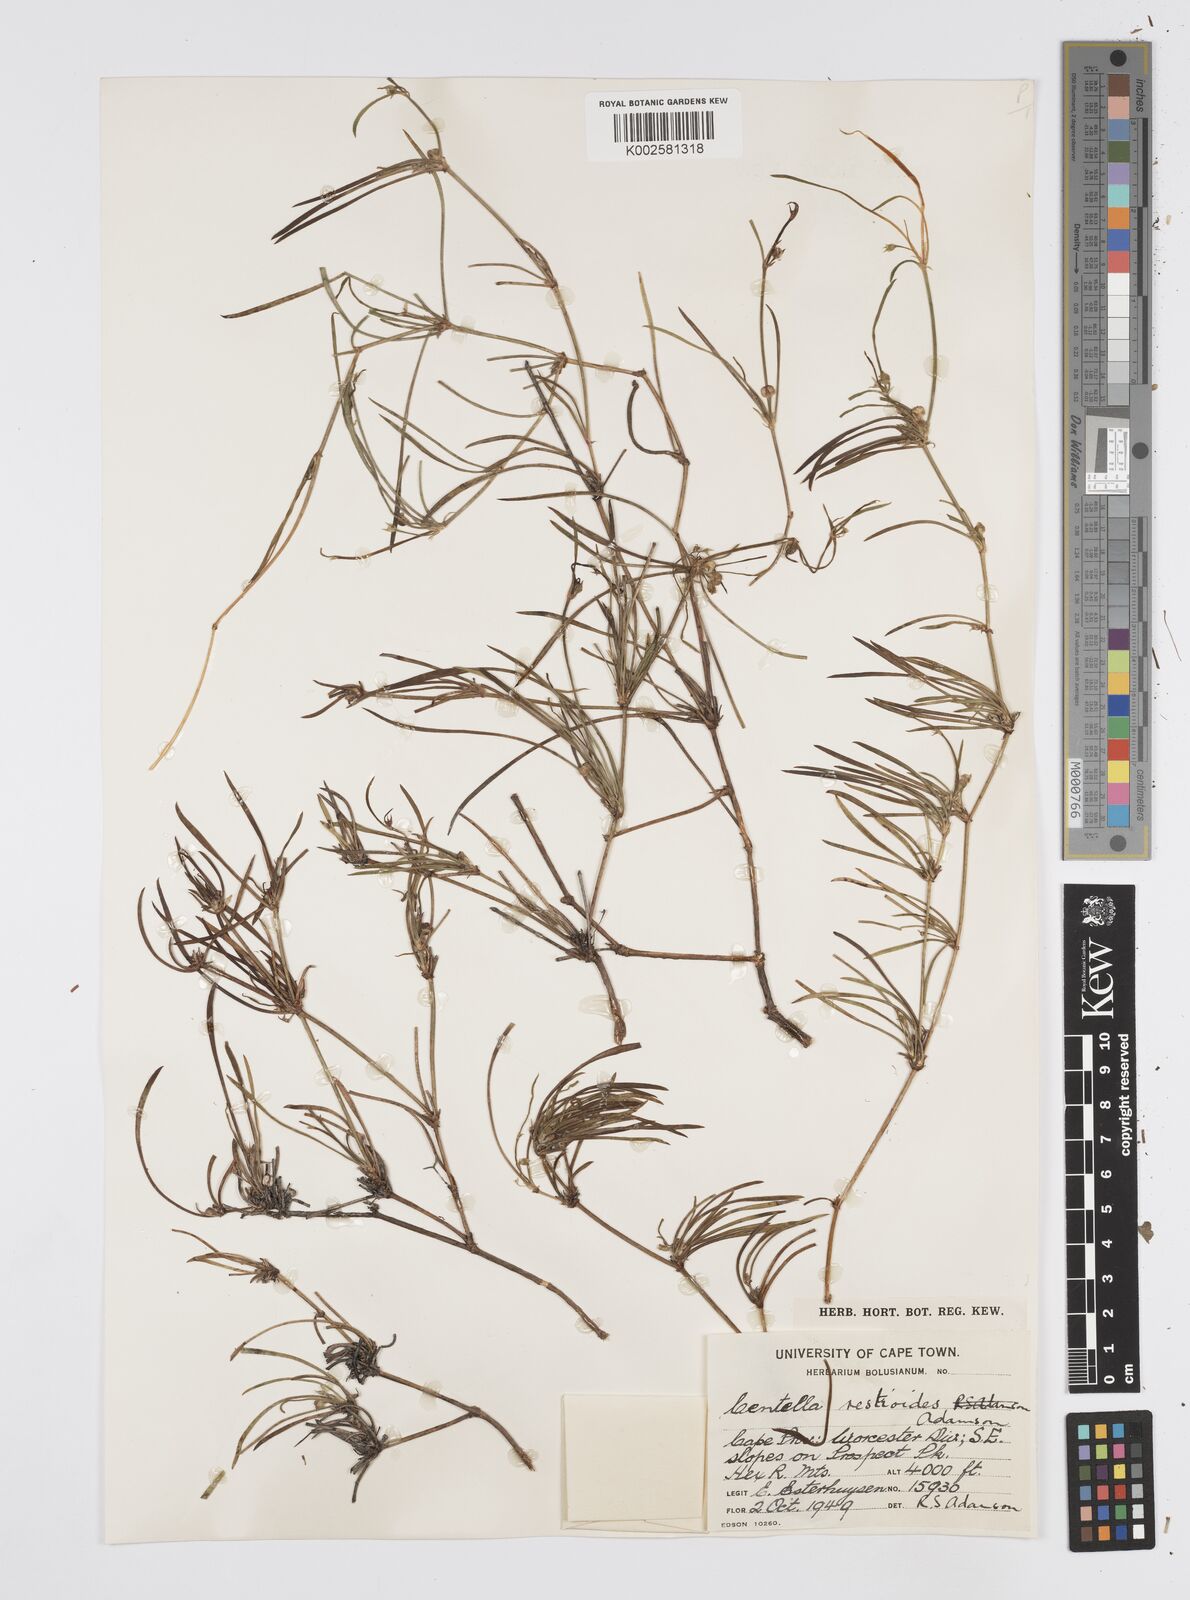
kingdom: Plantae
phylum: Tracheophyta
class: Magnoliopsida
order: Apiales
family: Apiaceae
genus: Centella
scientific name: Centella restioides
